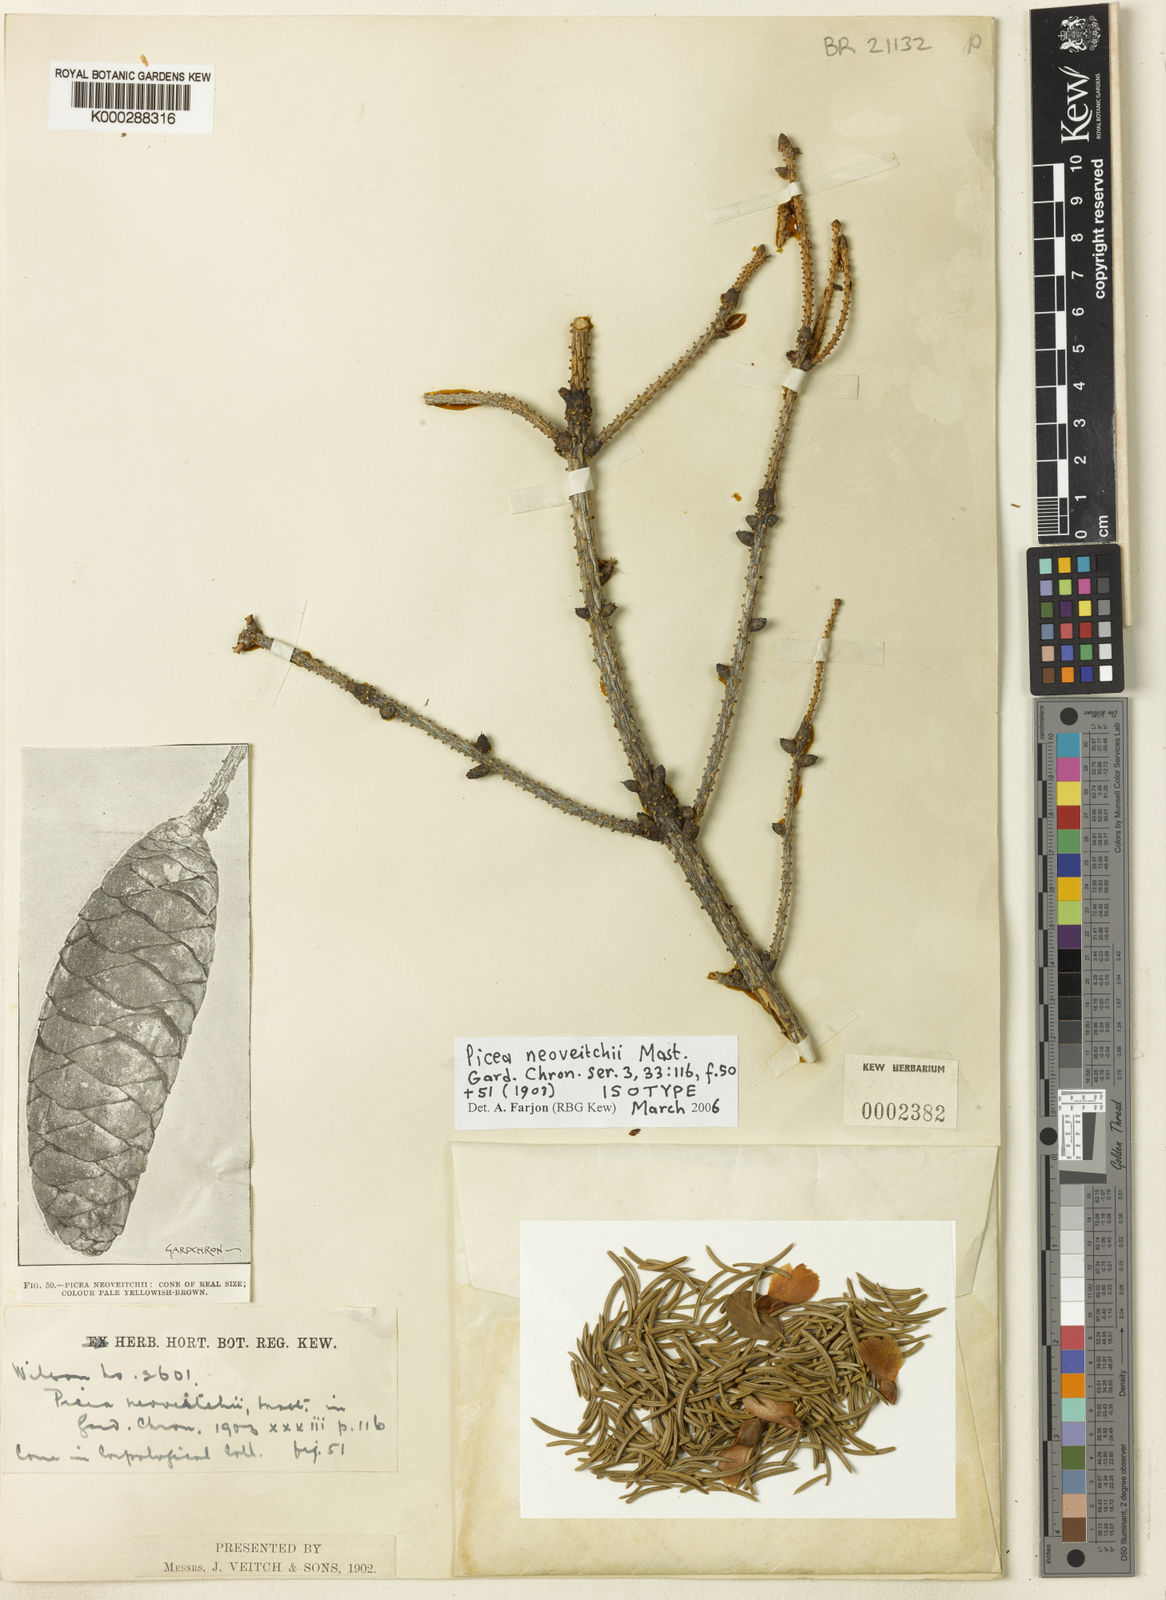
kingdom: Plantae
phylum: Tracheophyta
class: Pinopsida
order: Pinales
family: Pinaceae
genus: Picea
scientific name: Picea neoveitchii
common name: Hubei spruce
